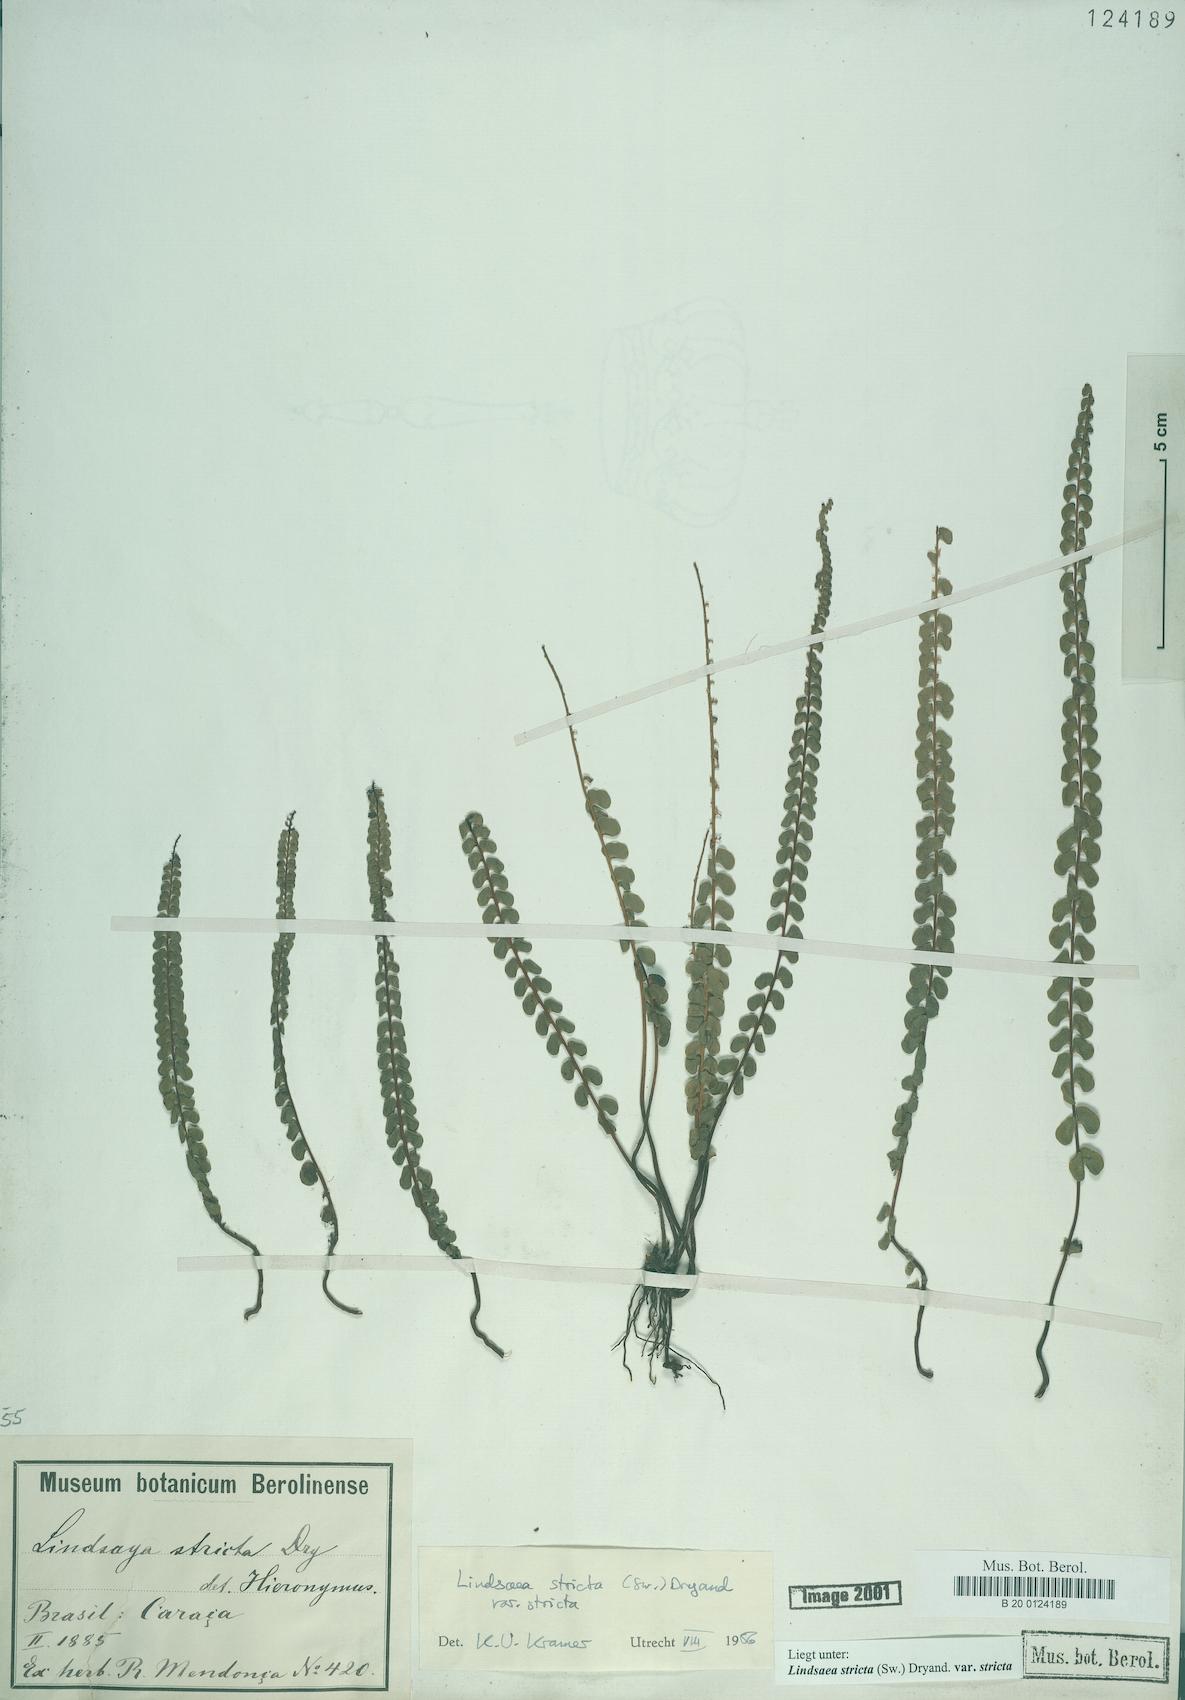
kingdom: Plantae
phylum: Tracheophyta
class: Polypodiopsida
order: Polypodiales
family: Lindsaeaceae
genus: Lindsaea
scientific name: Lindsaea stricta
